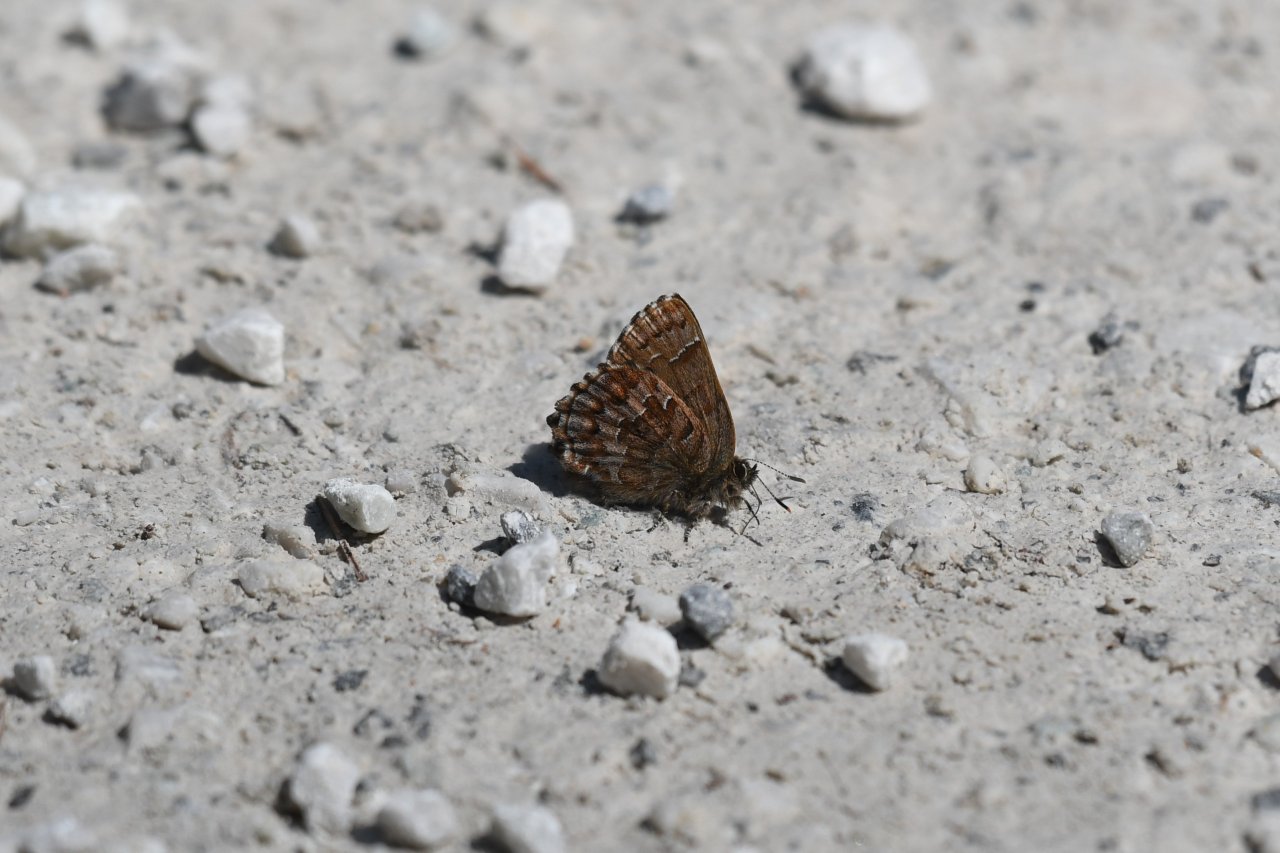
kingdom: Animalia
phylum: Arthropoda
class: Insecta
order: Lepidoptera
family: Lycaenidae
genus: Incisalia
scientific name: Incisalia niphon
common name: Eastern Pine Elfin
